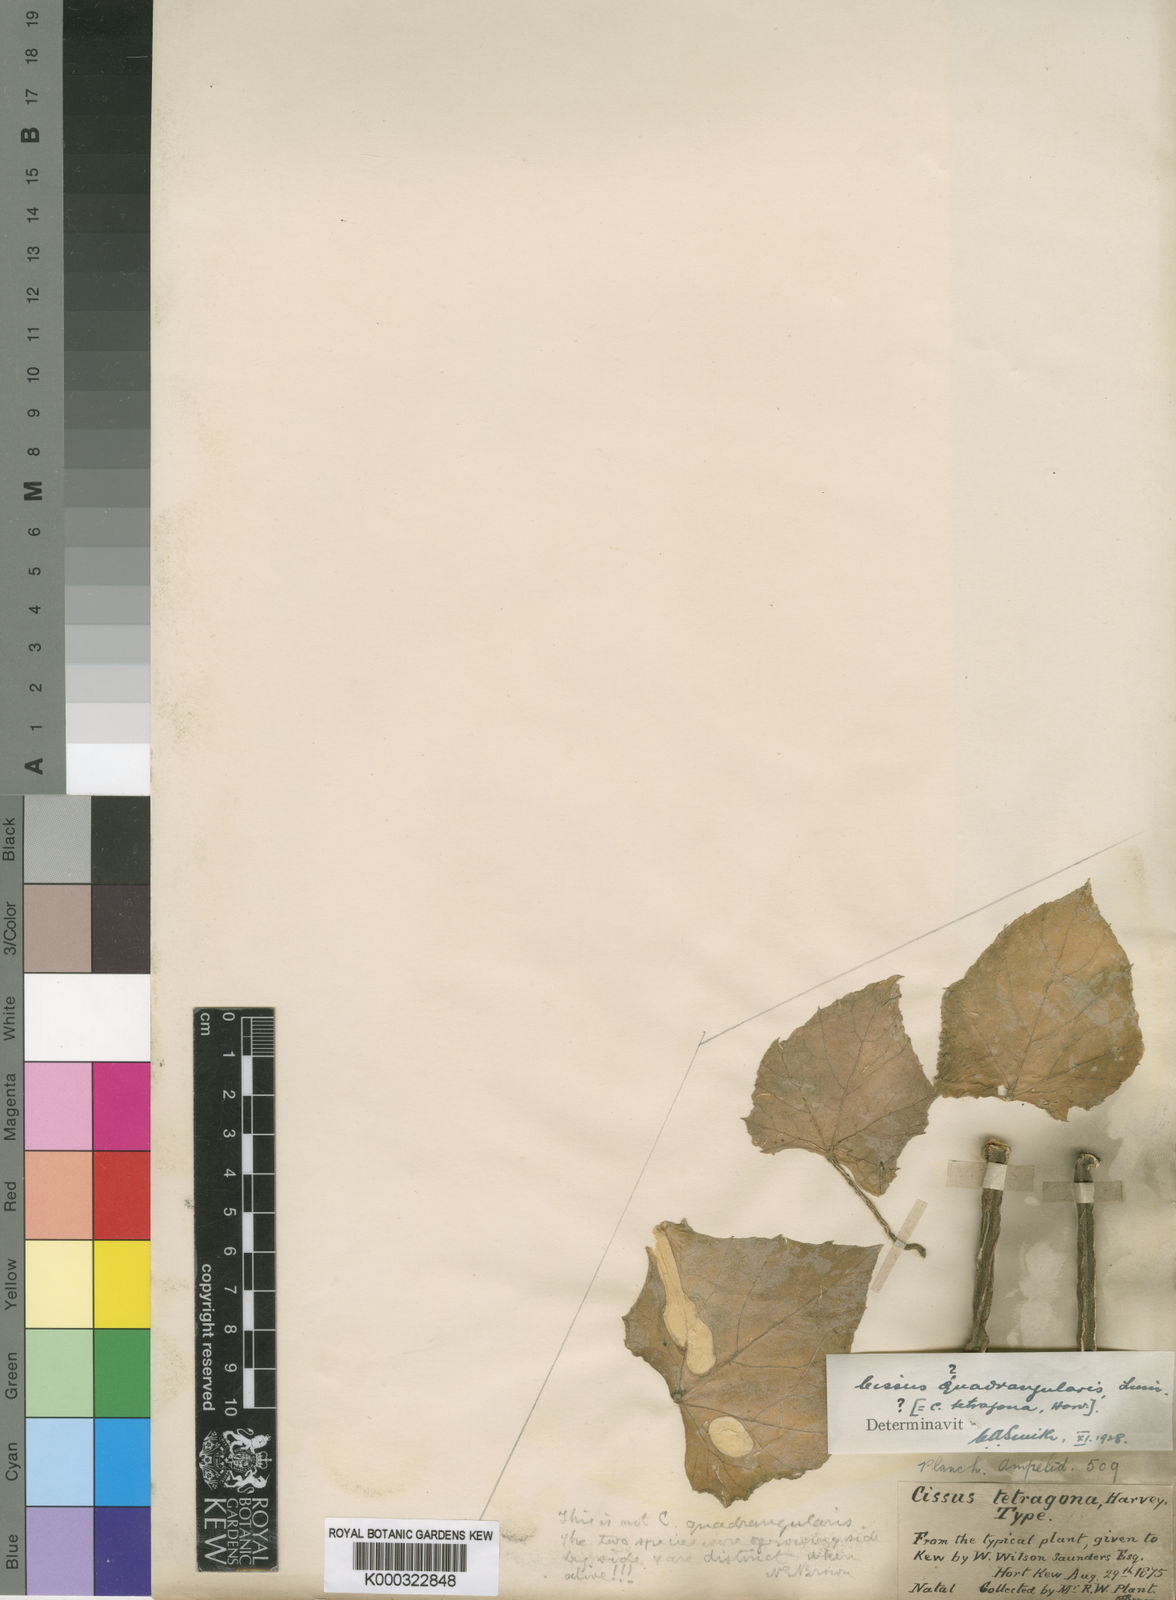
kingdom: Plantae
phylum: Tracheophyta
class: Magnoliopsida
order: Vitales
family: Vitaceae
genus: Cissus
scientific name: Cissus quadrangularis
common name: Veldt-grape
